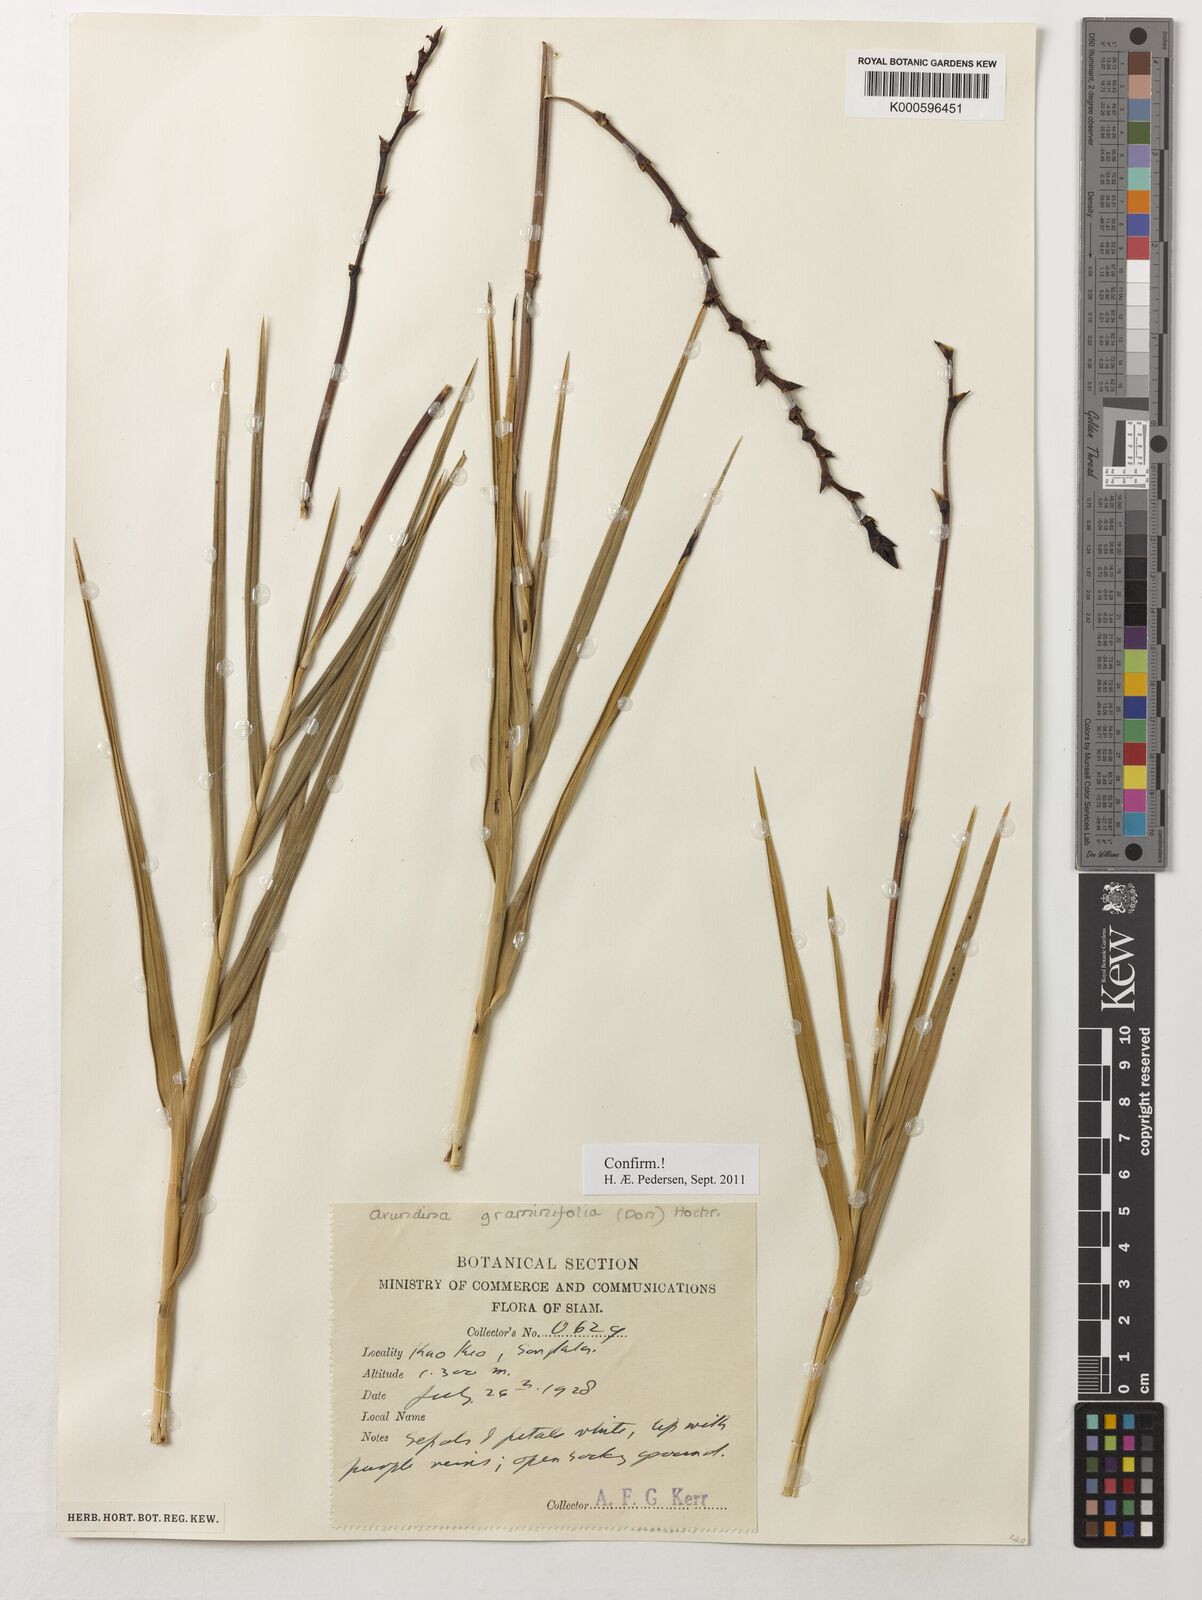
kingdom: Plantae
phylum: Tracheophyta
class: Liliopsida
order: Asparagales
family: Orchidaceae
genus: Arundina
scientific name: Arundina graminifolia
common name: Bamboo orchid
